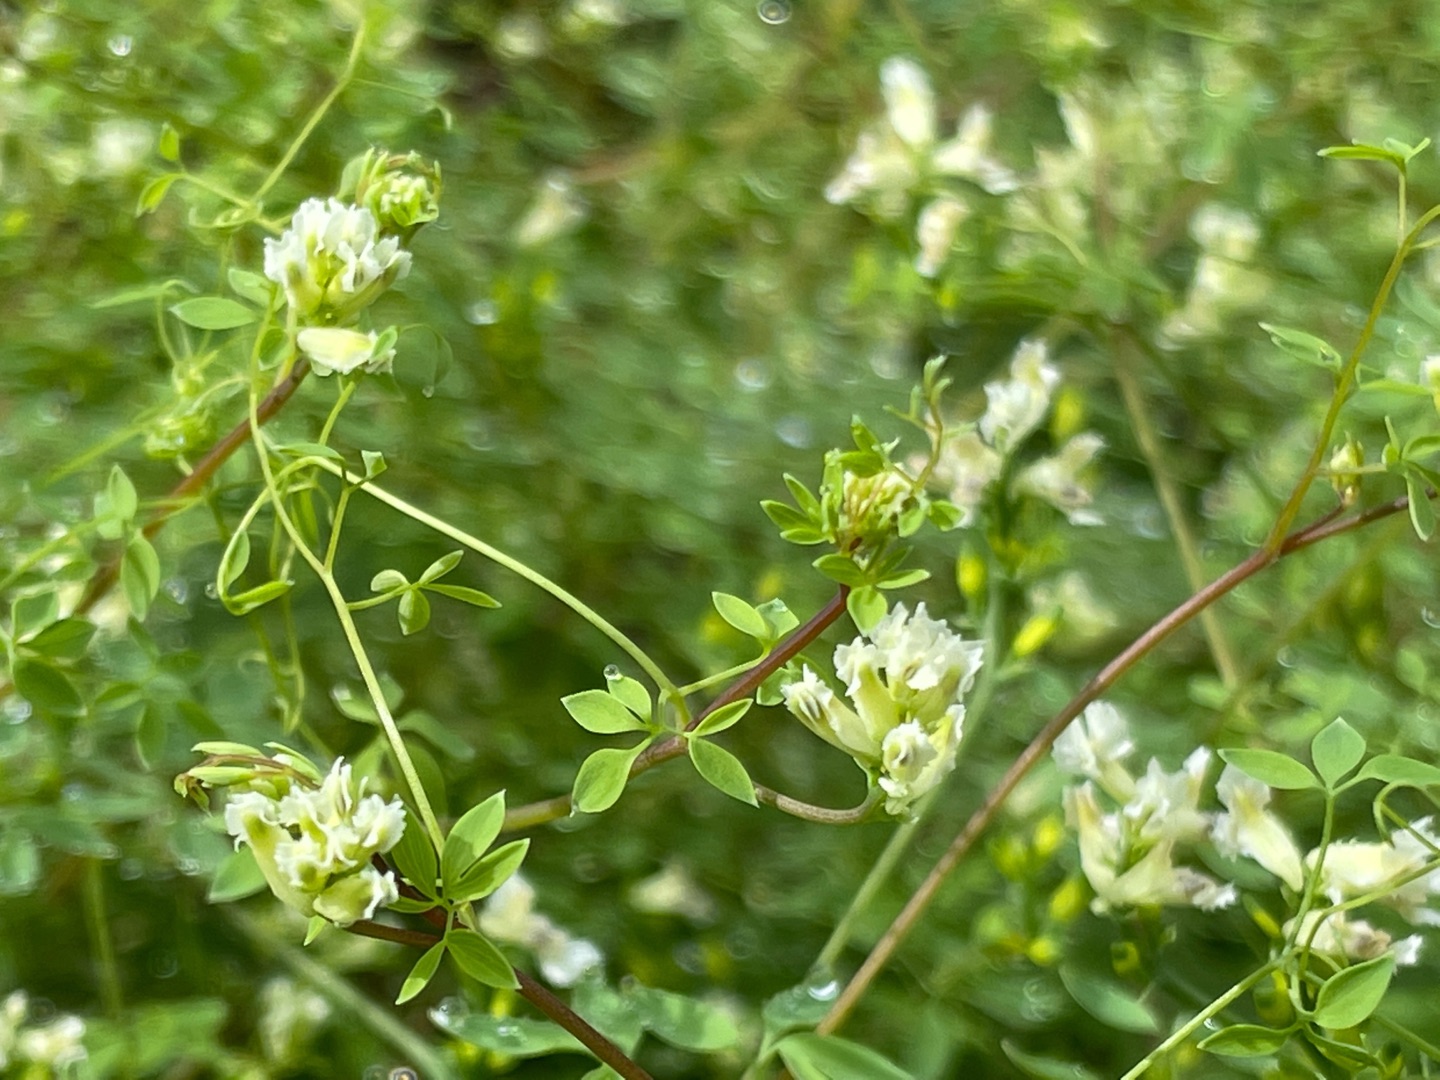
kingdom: Plantae
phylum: Tracheophyta
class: Magnoliopsida
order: Ranunculales
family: Papaveraceae
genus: Ceratocapnos
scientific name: Ceratocapnos claviculata
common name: Klatrende lærkespore
